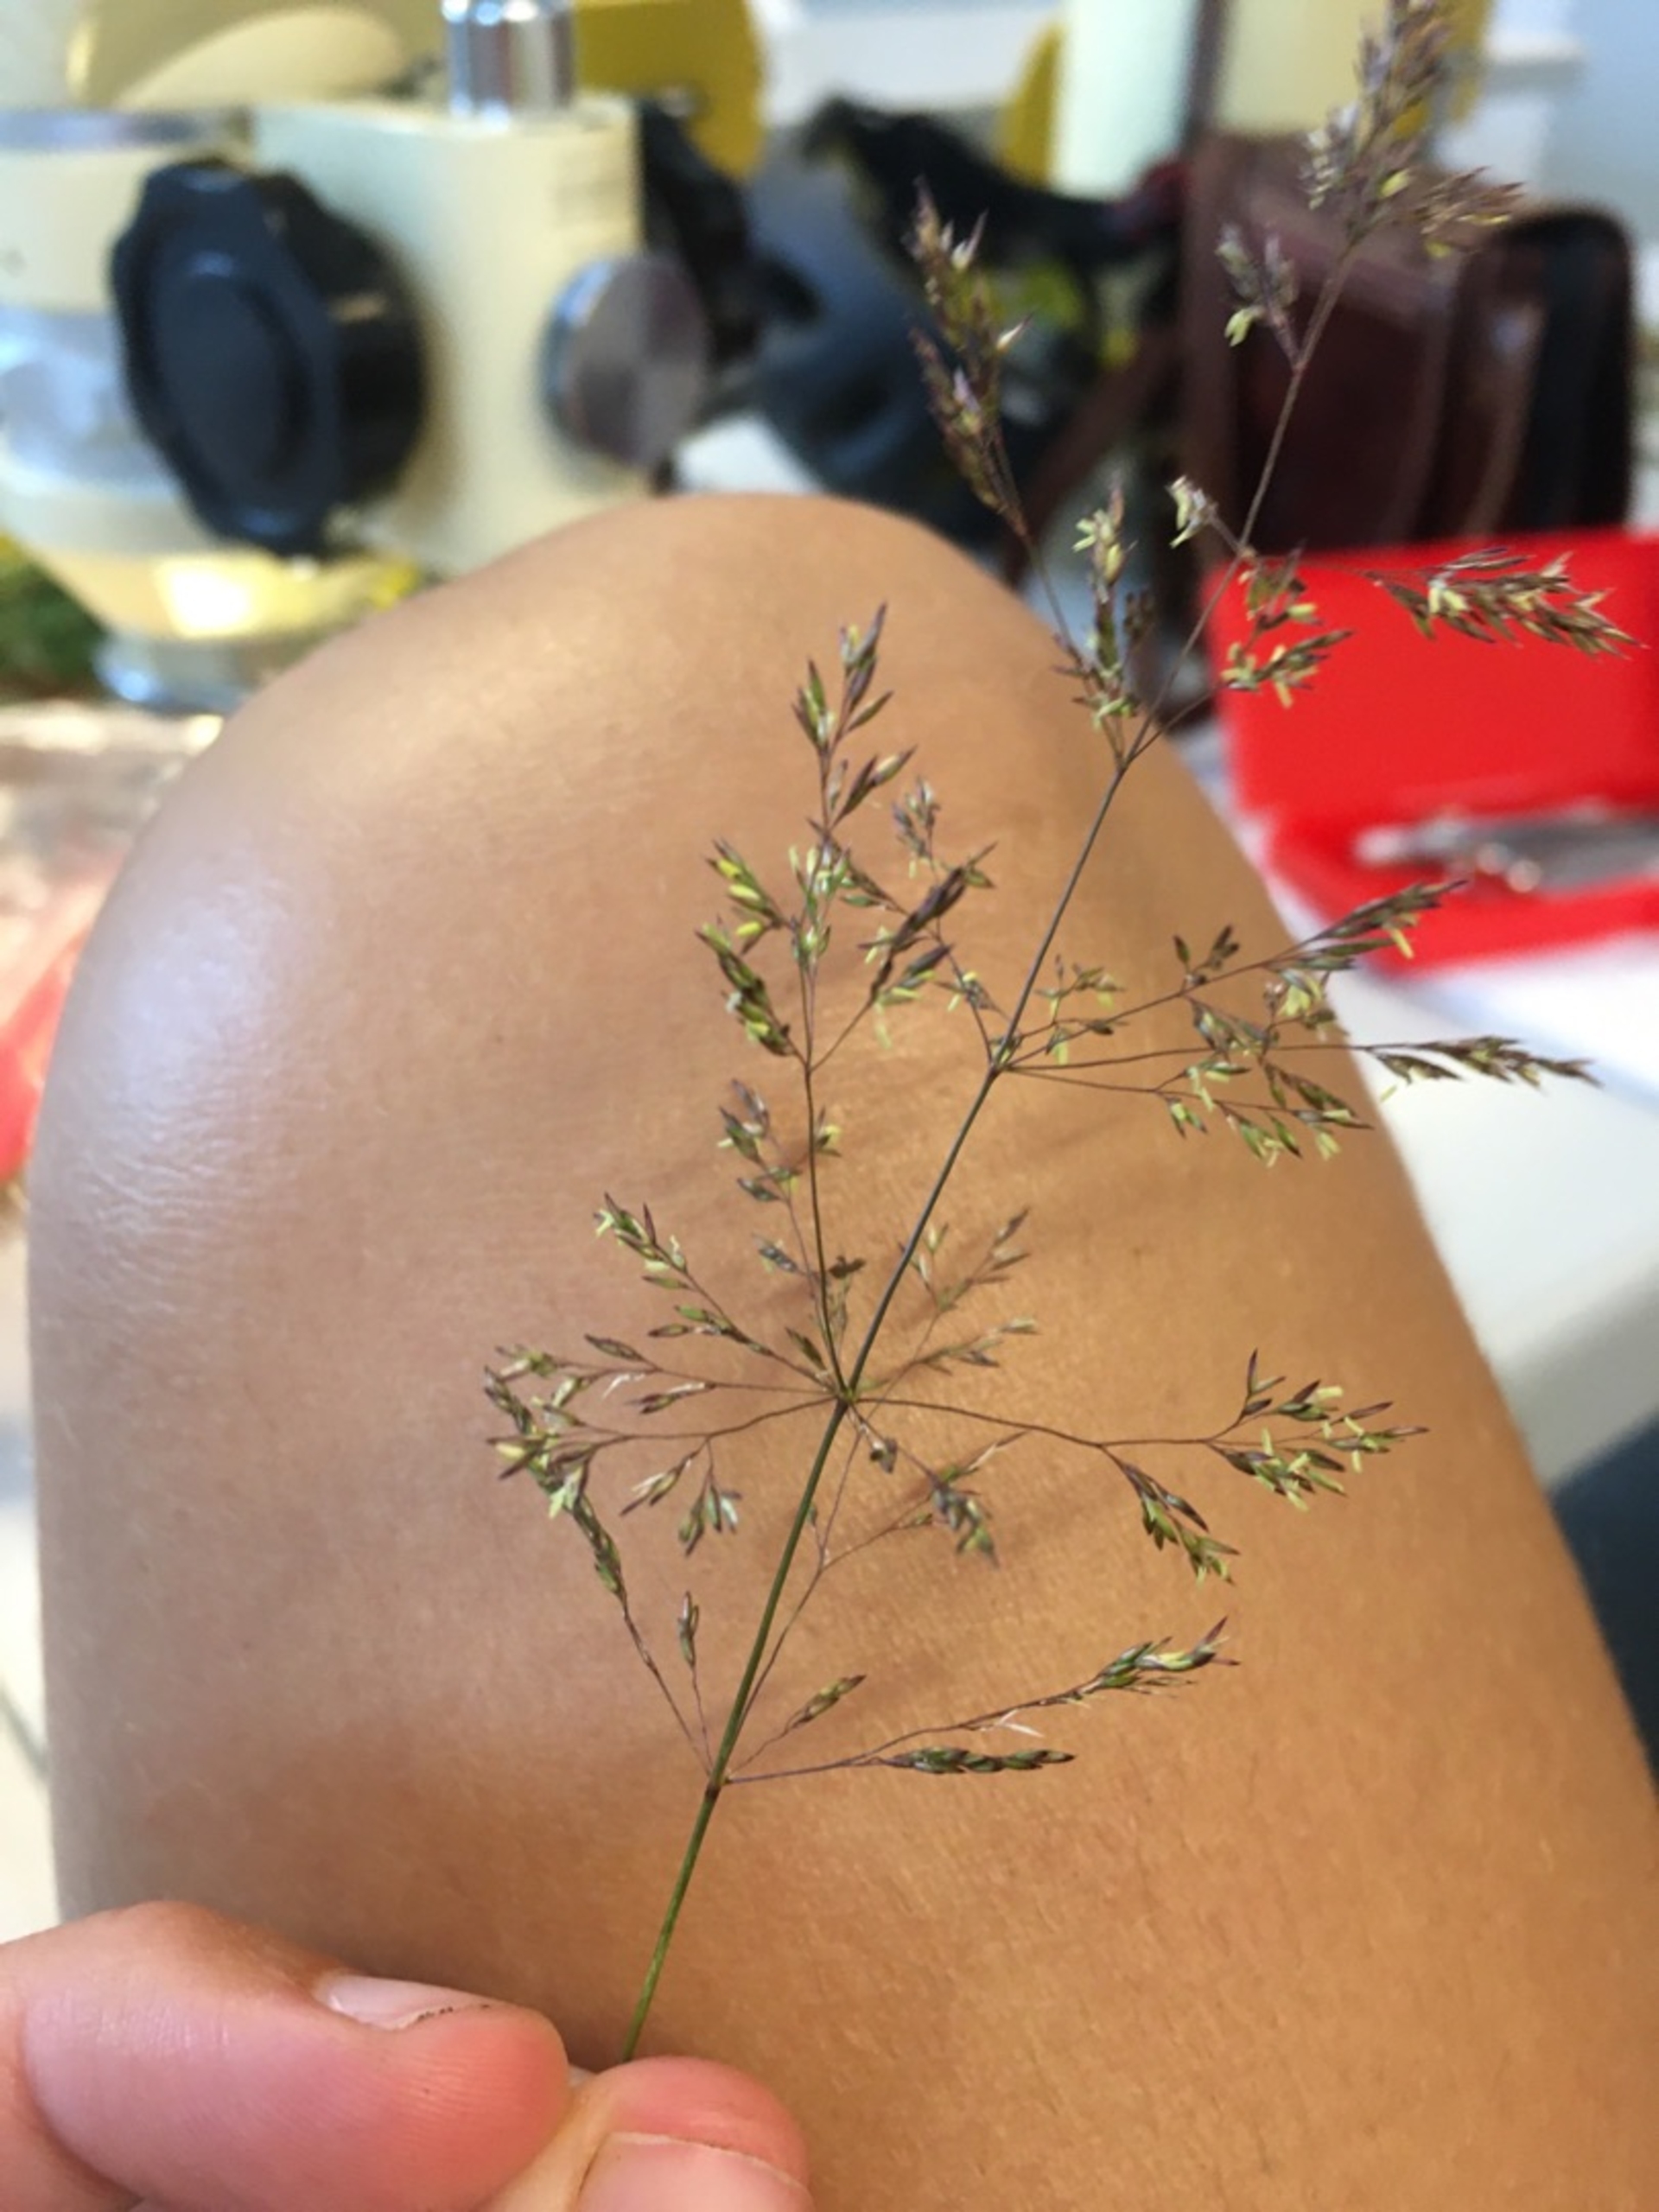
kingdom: Plantae
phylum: Tracheophyta
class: Liliopsida
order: Poales
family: Poaceae
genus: Agrostis
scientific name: Agrostis stolonifera
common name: Kryb-hvene
